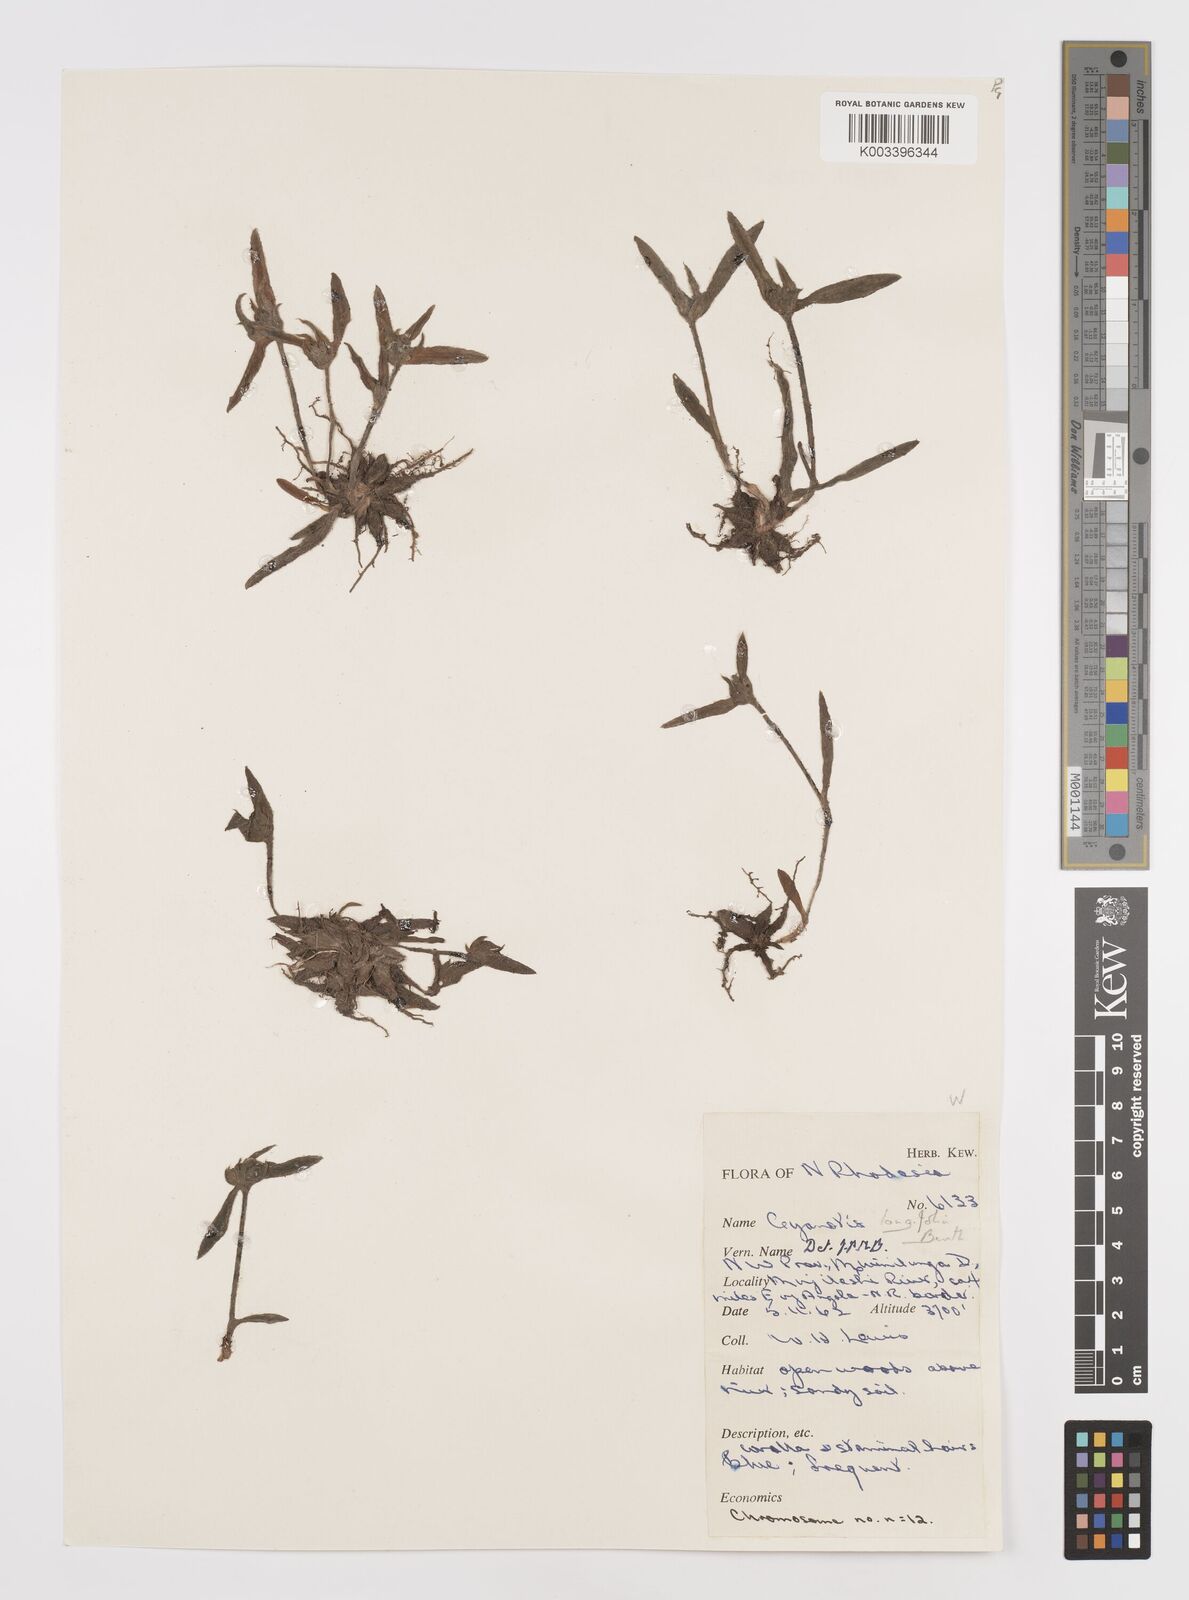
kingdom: Plantae
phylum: Tracheophyta
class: Liliopsida
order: Commelinales
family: Commelinaceae
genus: Cyanotis
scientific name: Cyanotis longifolia
